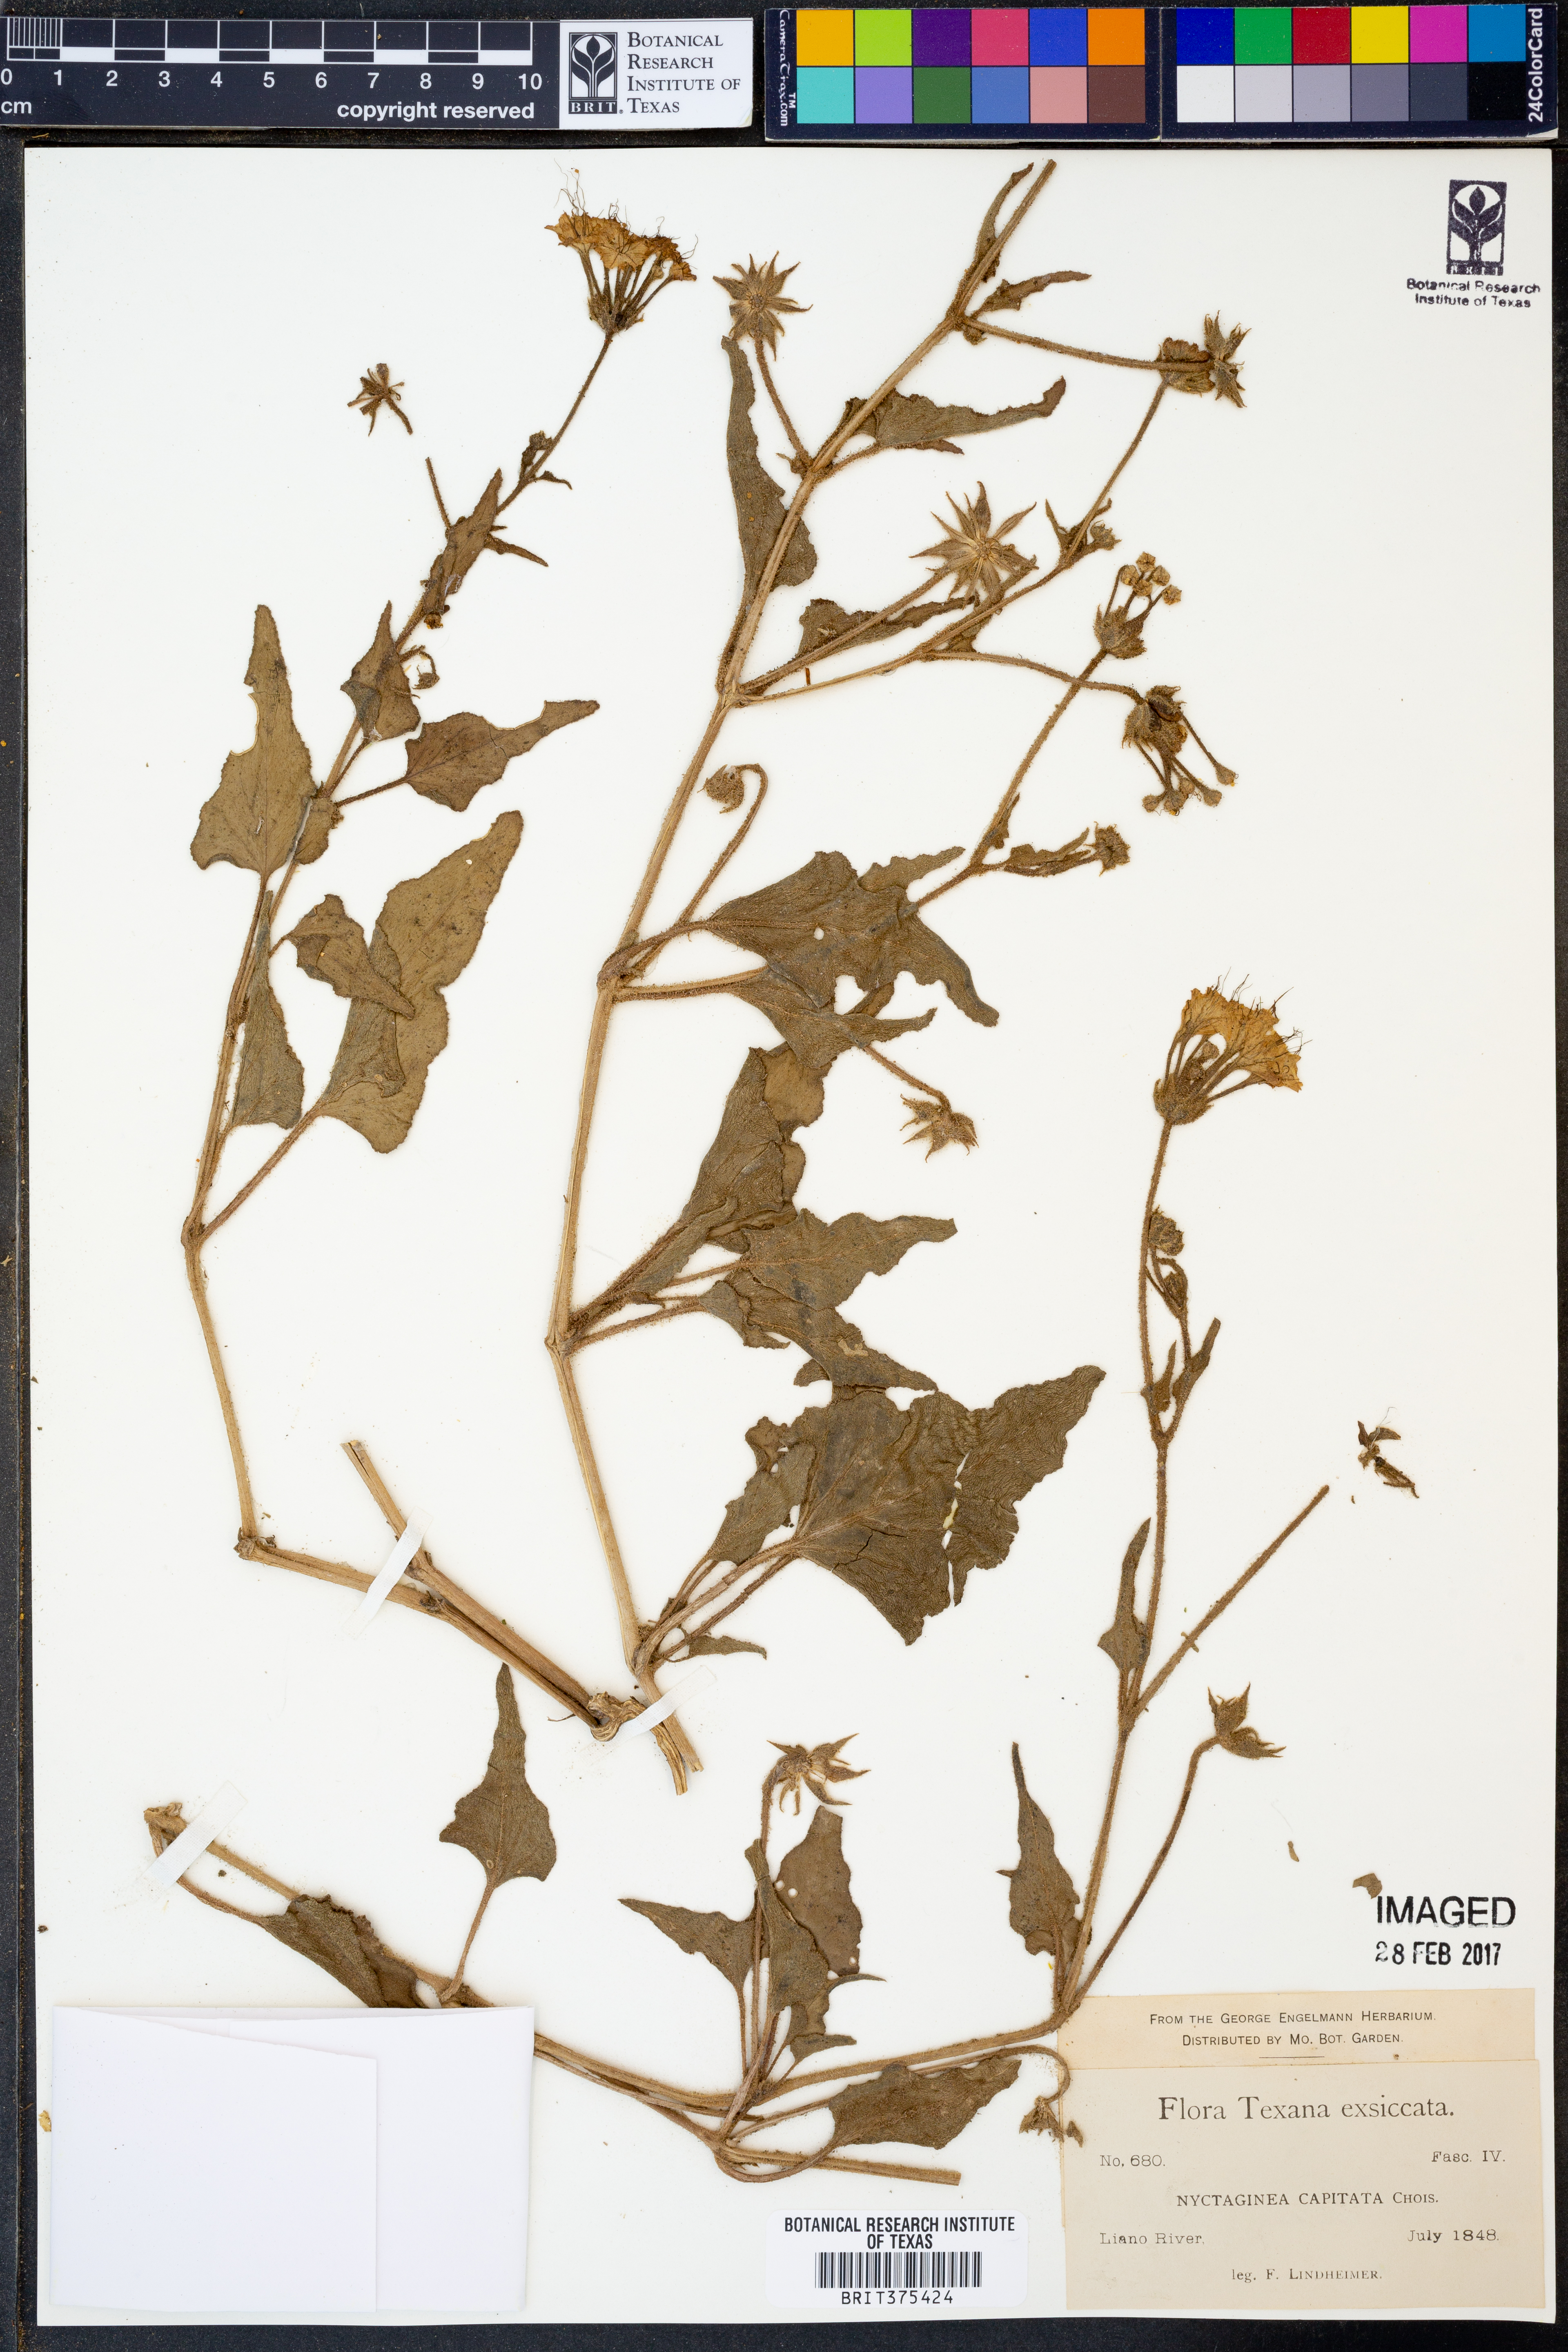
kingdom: Plantae
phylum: Tracheophyta
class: Magnoliopsida
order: Caryophyllales
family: Nyctaginaceae
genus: Nyctaginia
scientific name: Nyctaginia capitata
